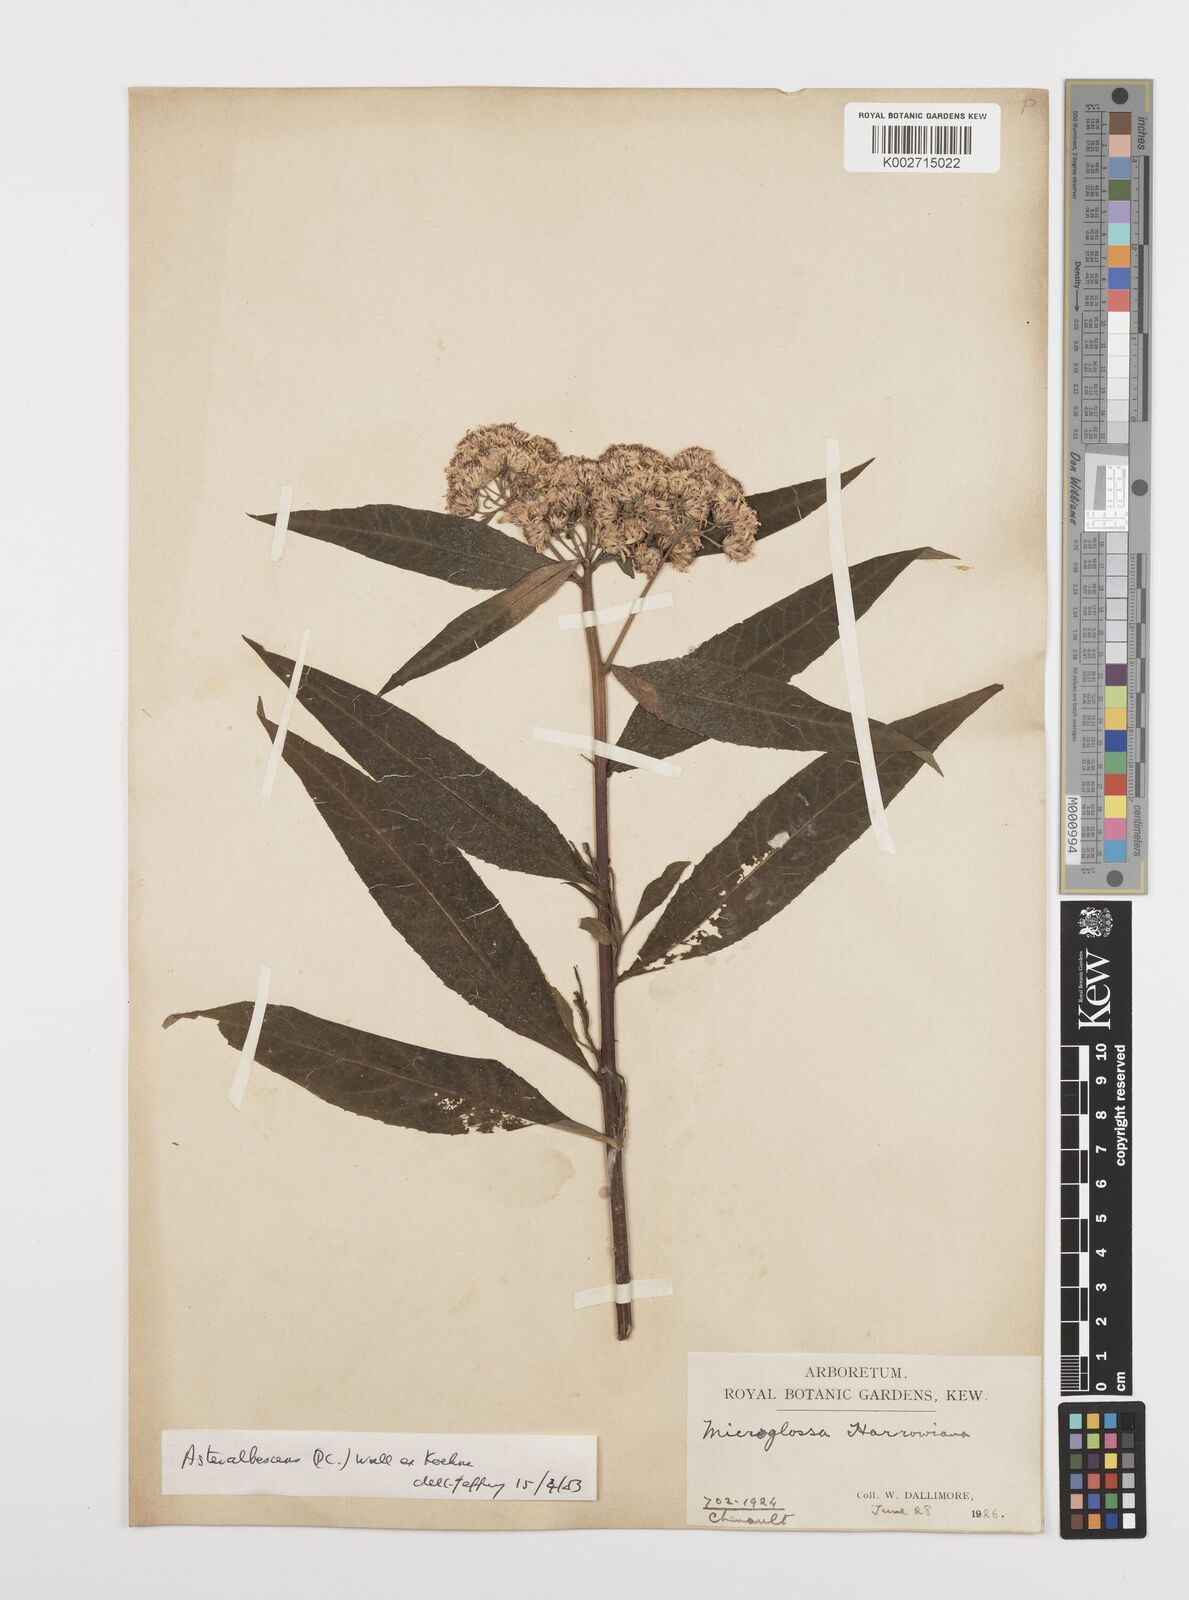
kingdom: Plantae
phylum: Tracheophyta
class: Magnoliopsida
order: Asterales
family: Asteraceae
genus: Sinosidus
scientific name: Sinosidus albescens
